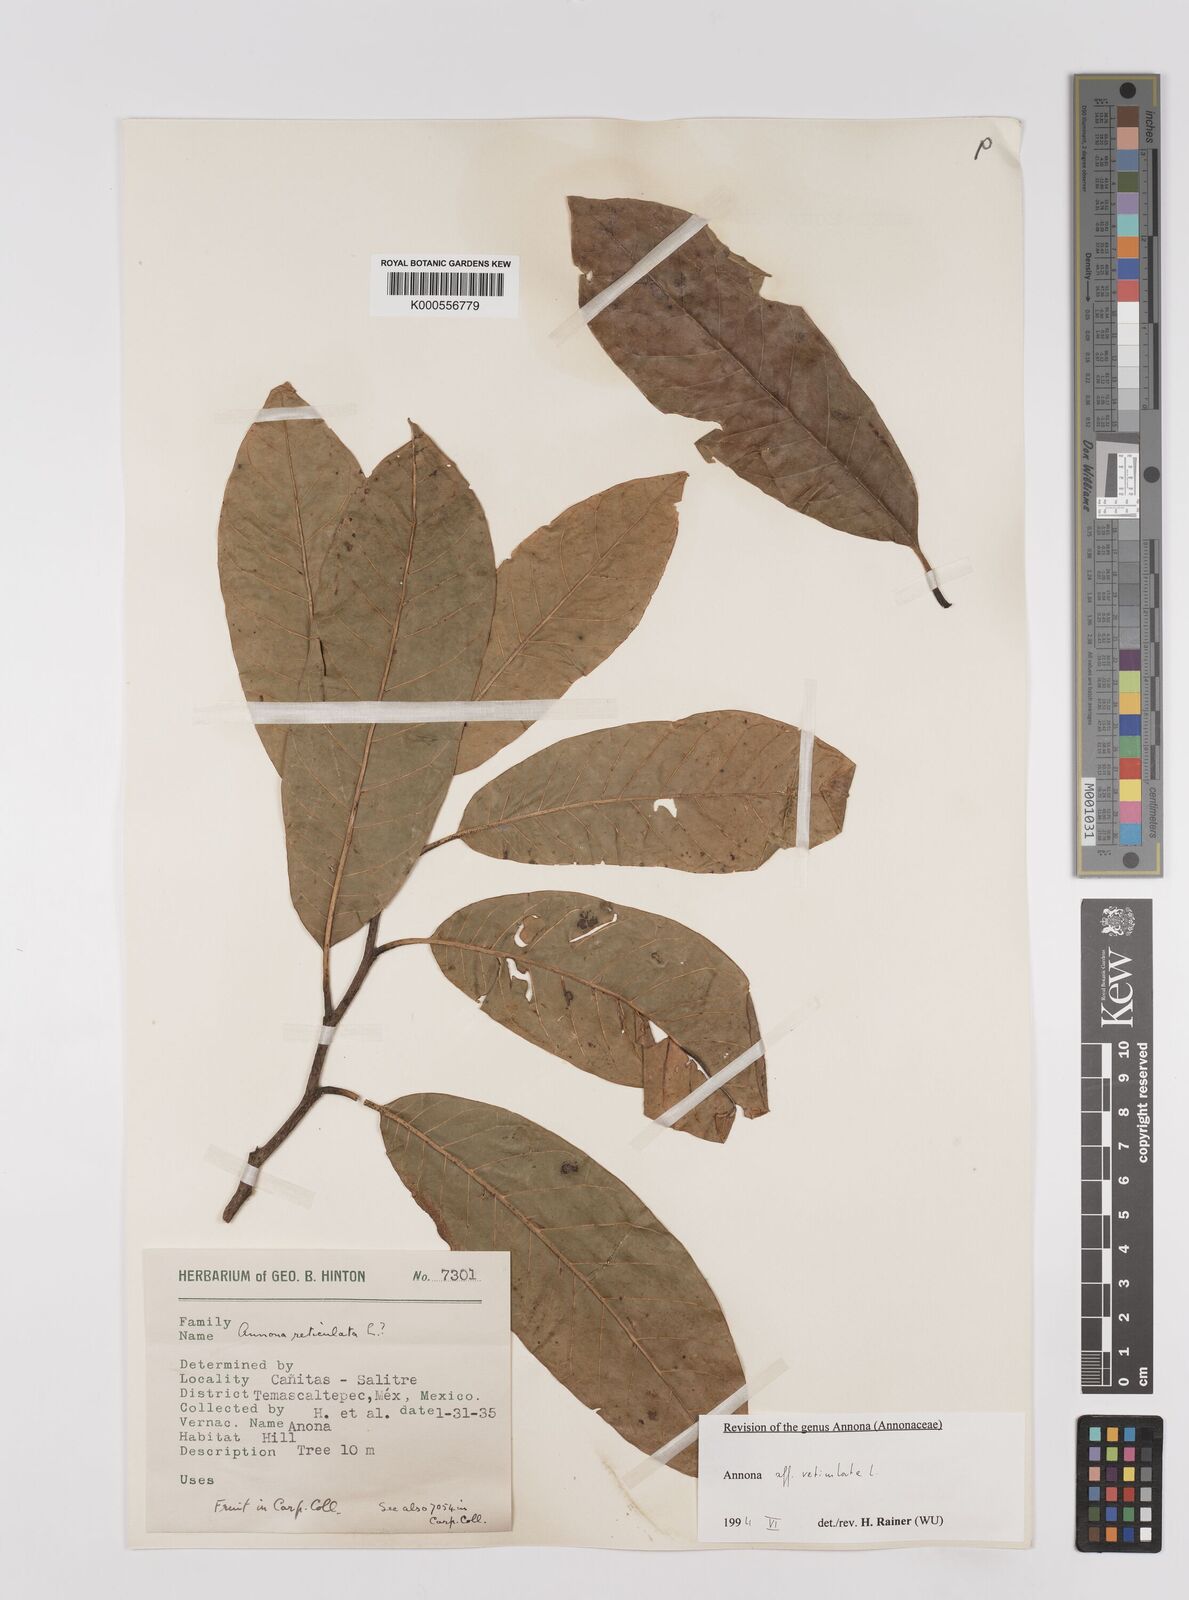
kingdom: Plantae
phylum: Tracheophyta
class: Magnoliopsida
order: Magnoliales
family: Annonaceae
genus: Annona
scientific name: Annona reticulata
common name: Custard apple
